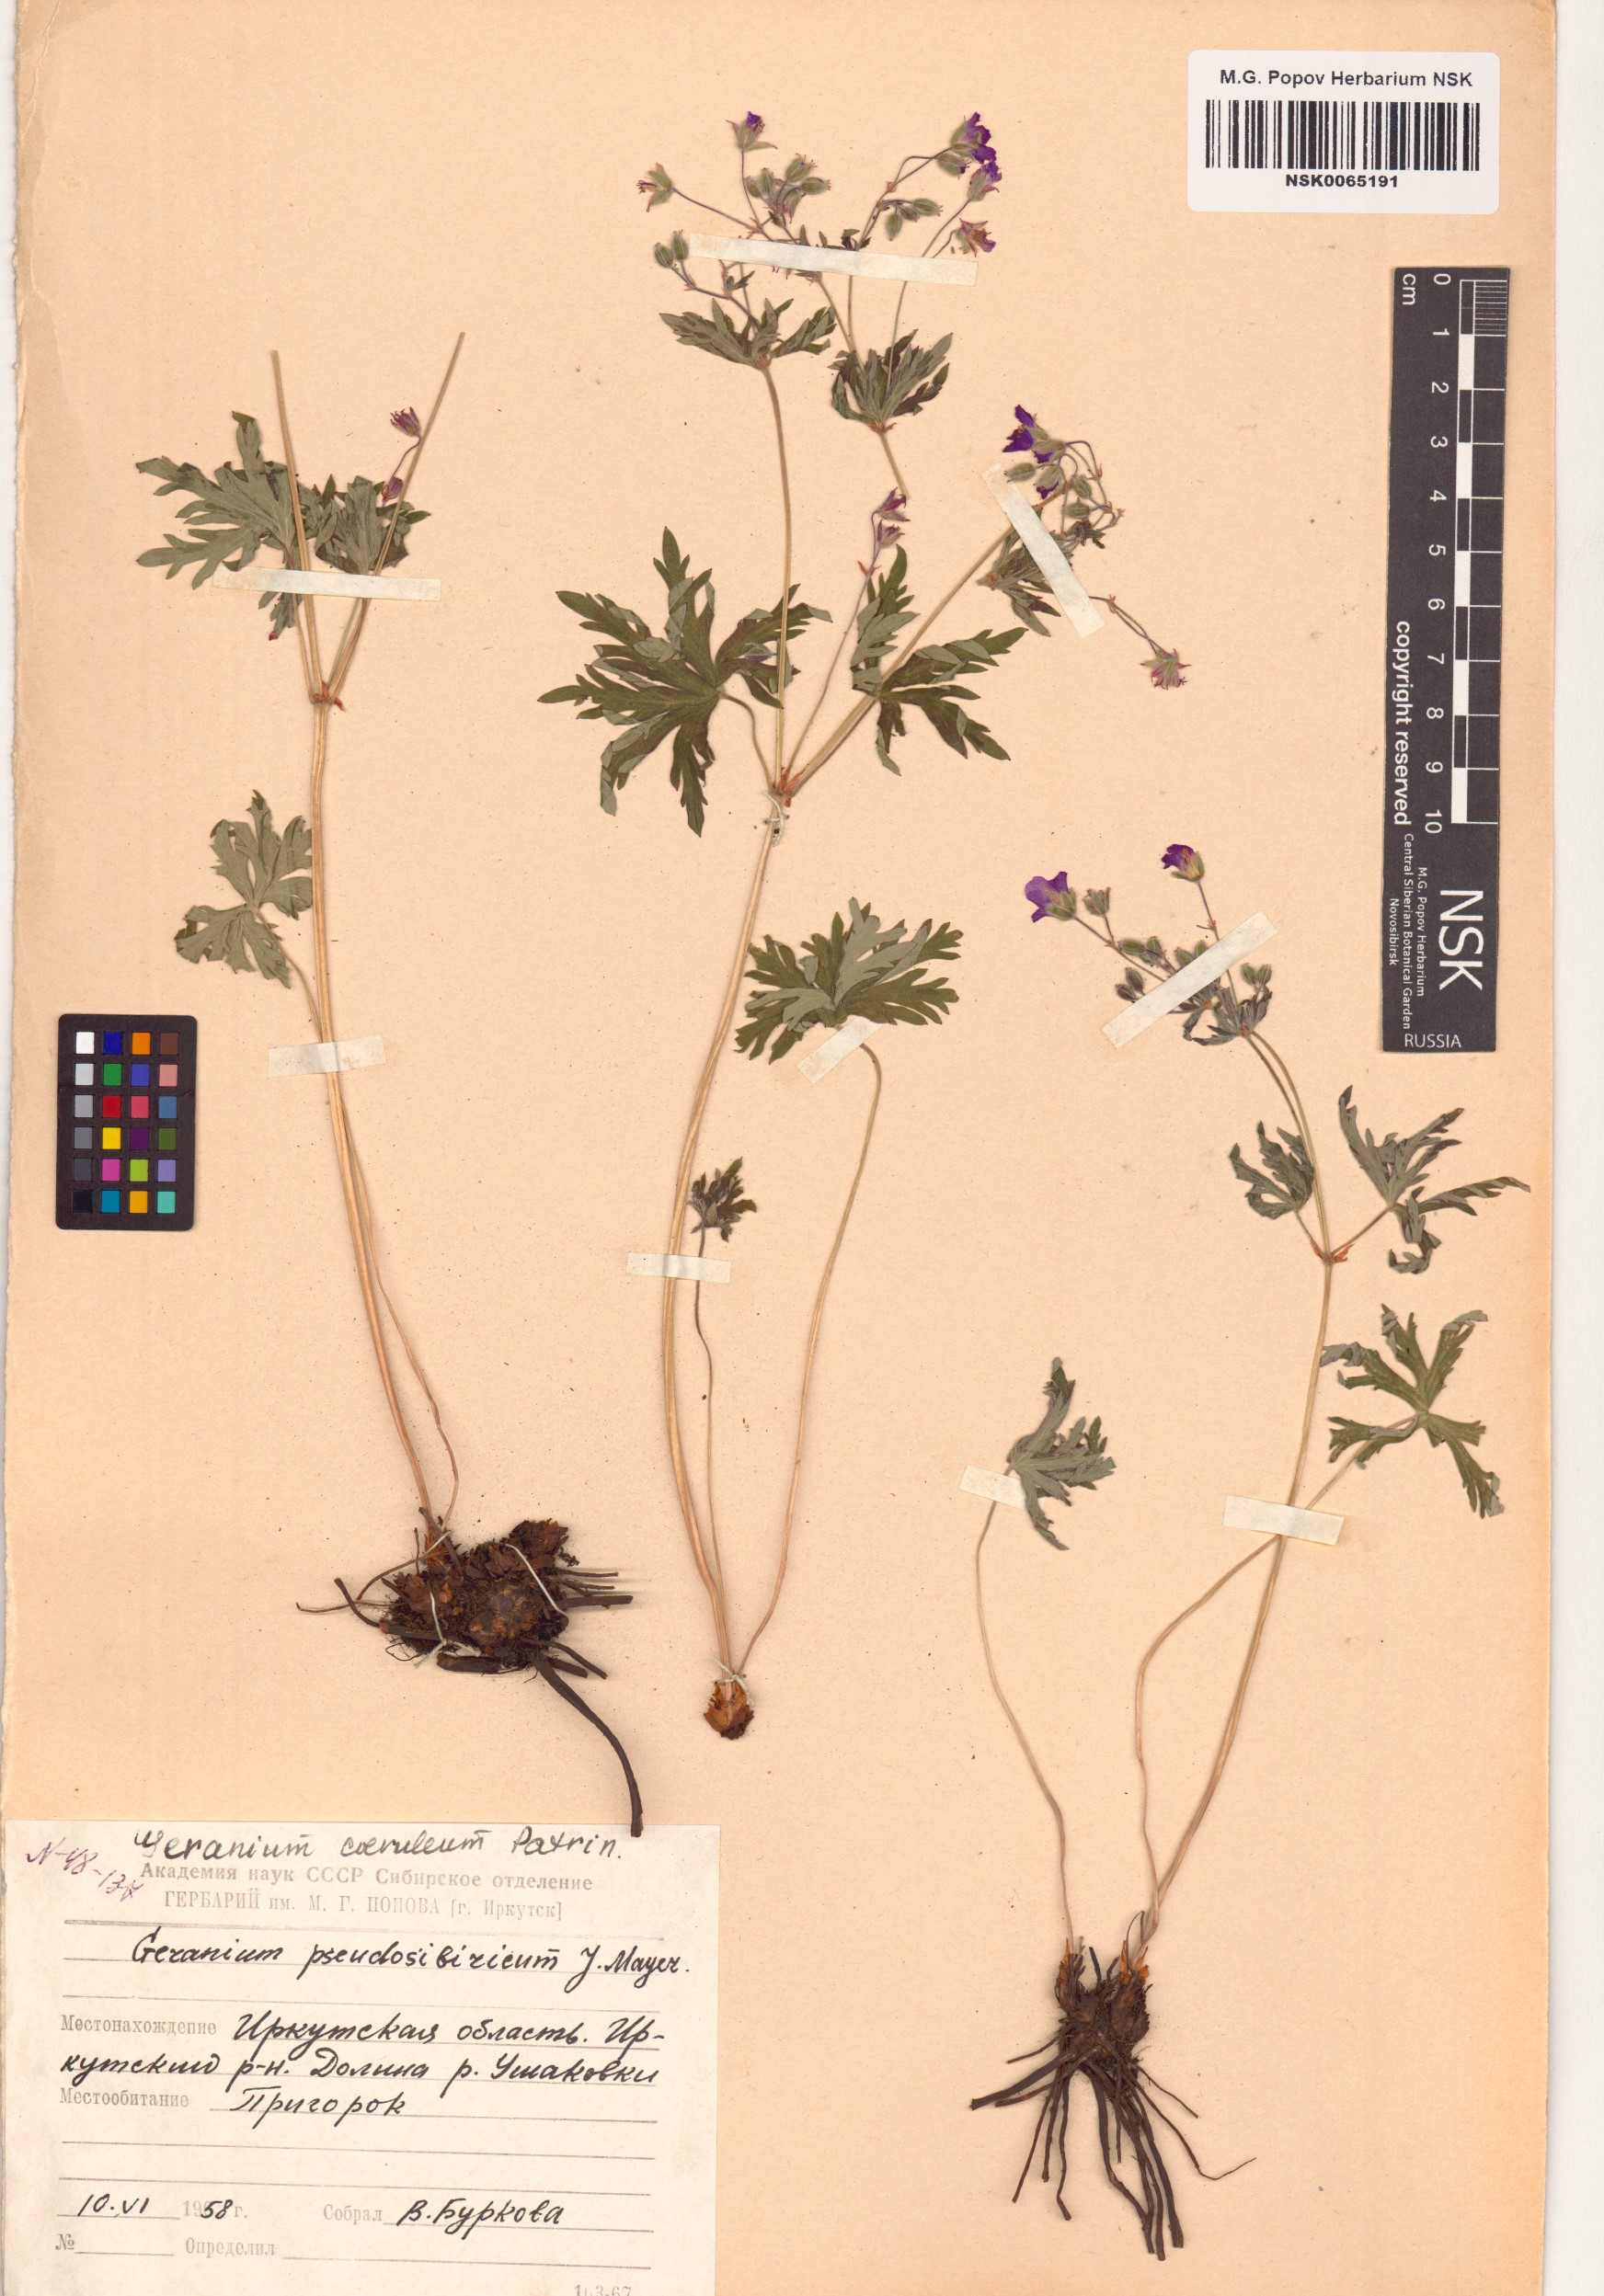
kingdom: Plantae
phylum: Tracheophyta
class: Magnoliopsida
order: Geraniales
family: Geraniaceae
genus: Geranium
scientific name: Geranium pseudosibiricum
